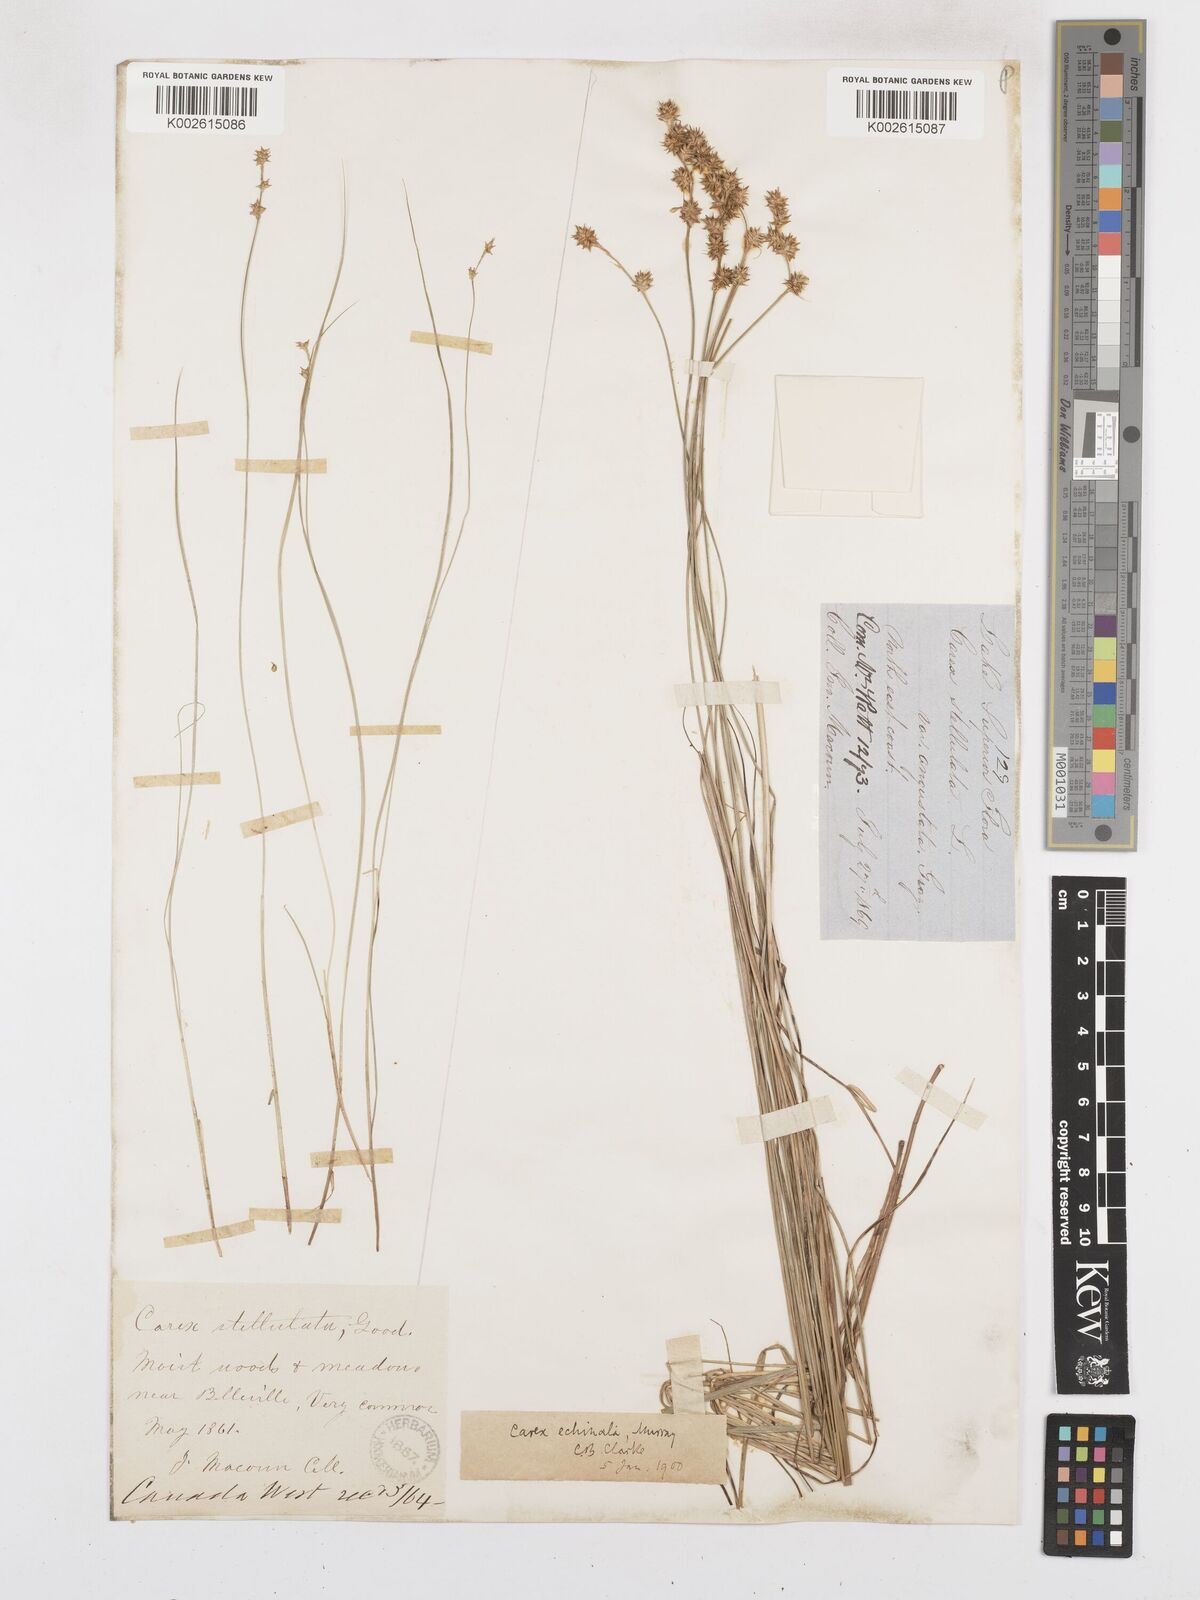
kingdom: Plantae
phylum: Tracheophyta
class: Liliopsida
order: Poales
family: Cyperaceae
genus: Carex
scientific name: Carex echinata
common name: Star sedge
